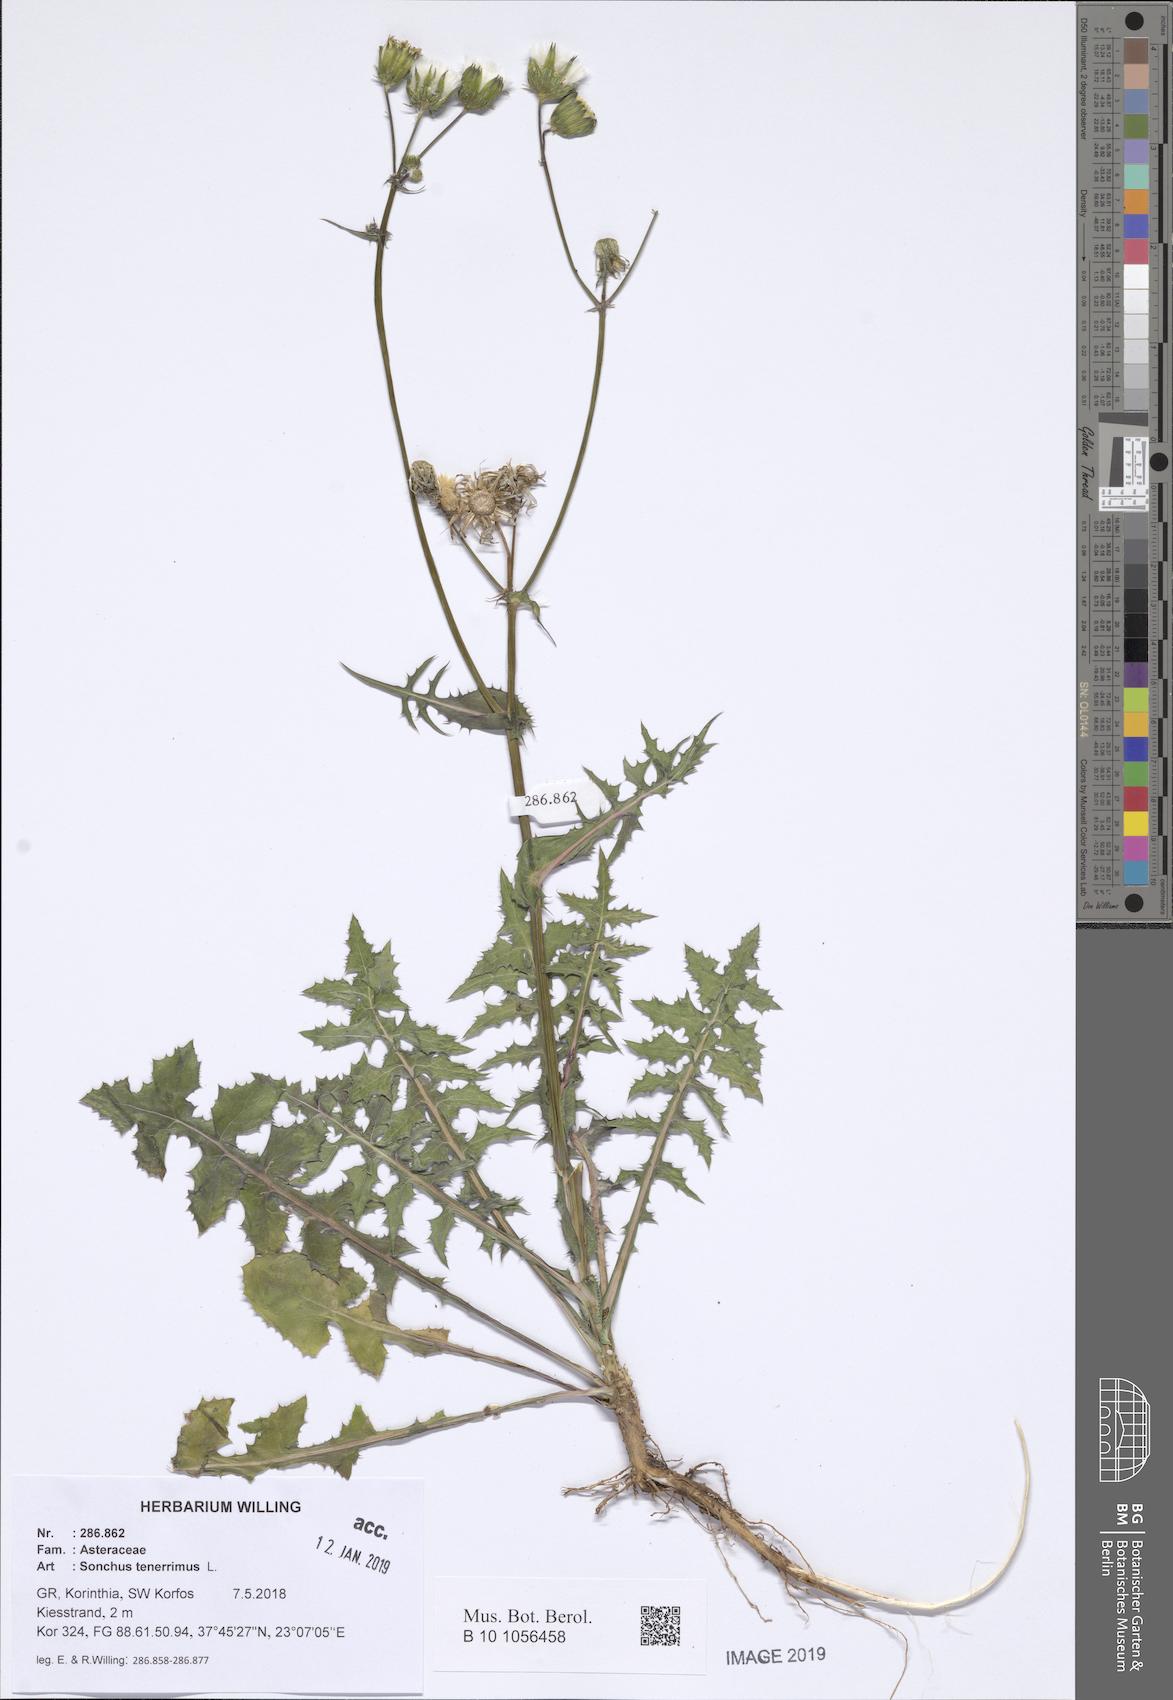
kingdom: Plantae
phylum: Tracheophyta
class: Magnoliopsida
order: Asterales
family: Asteraceae
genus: Sonchus
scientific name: Sonchus tenerrimus
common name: Clammy sowthistle
